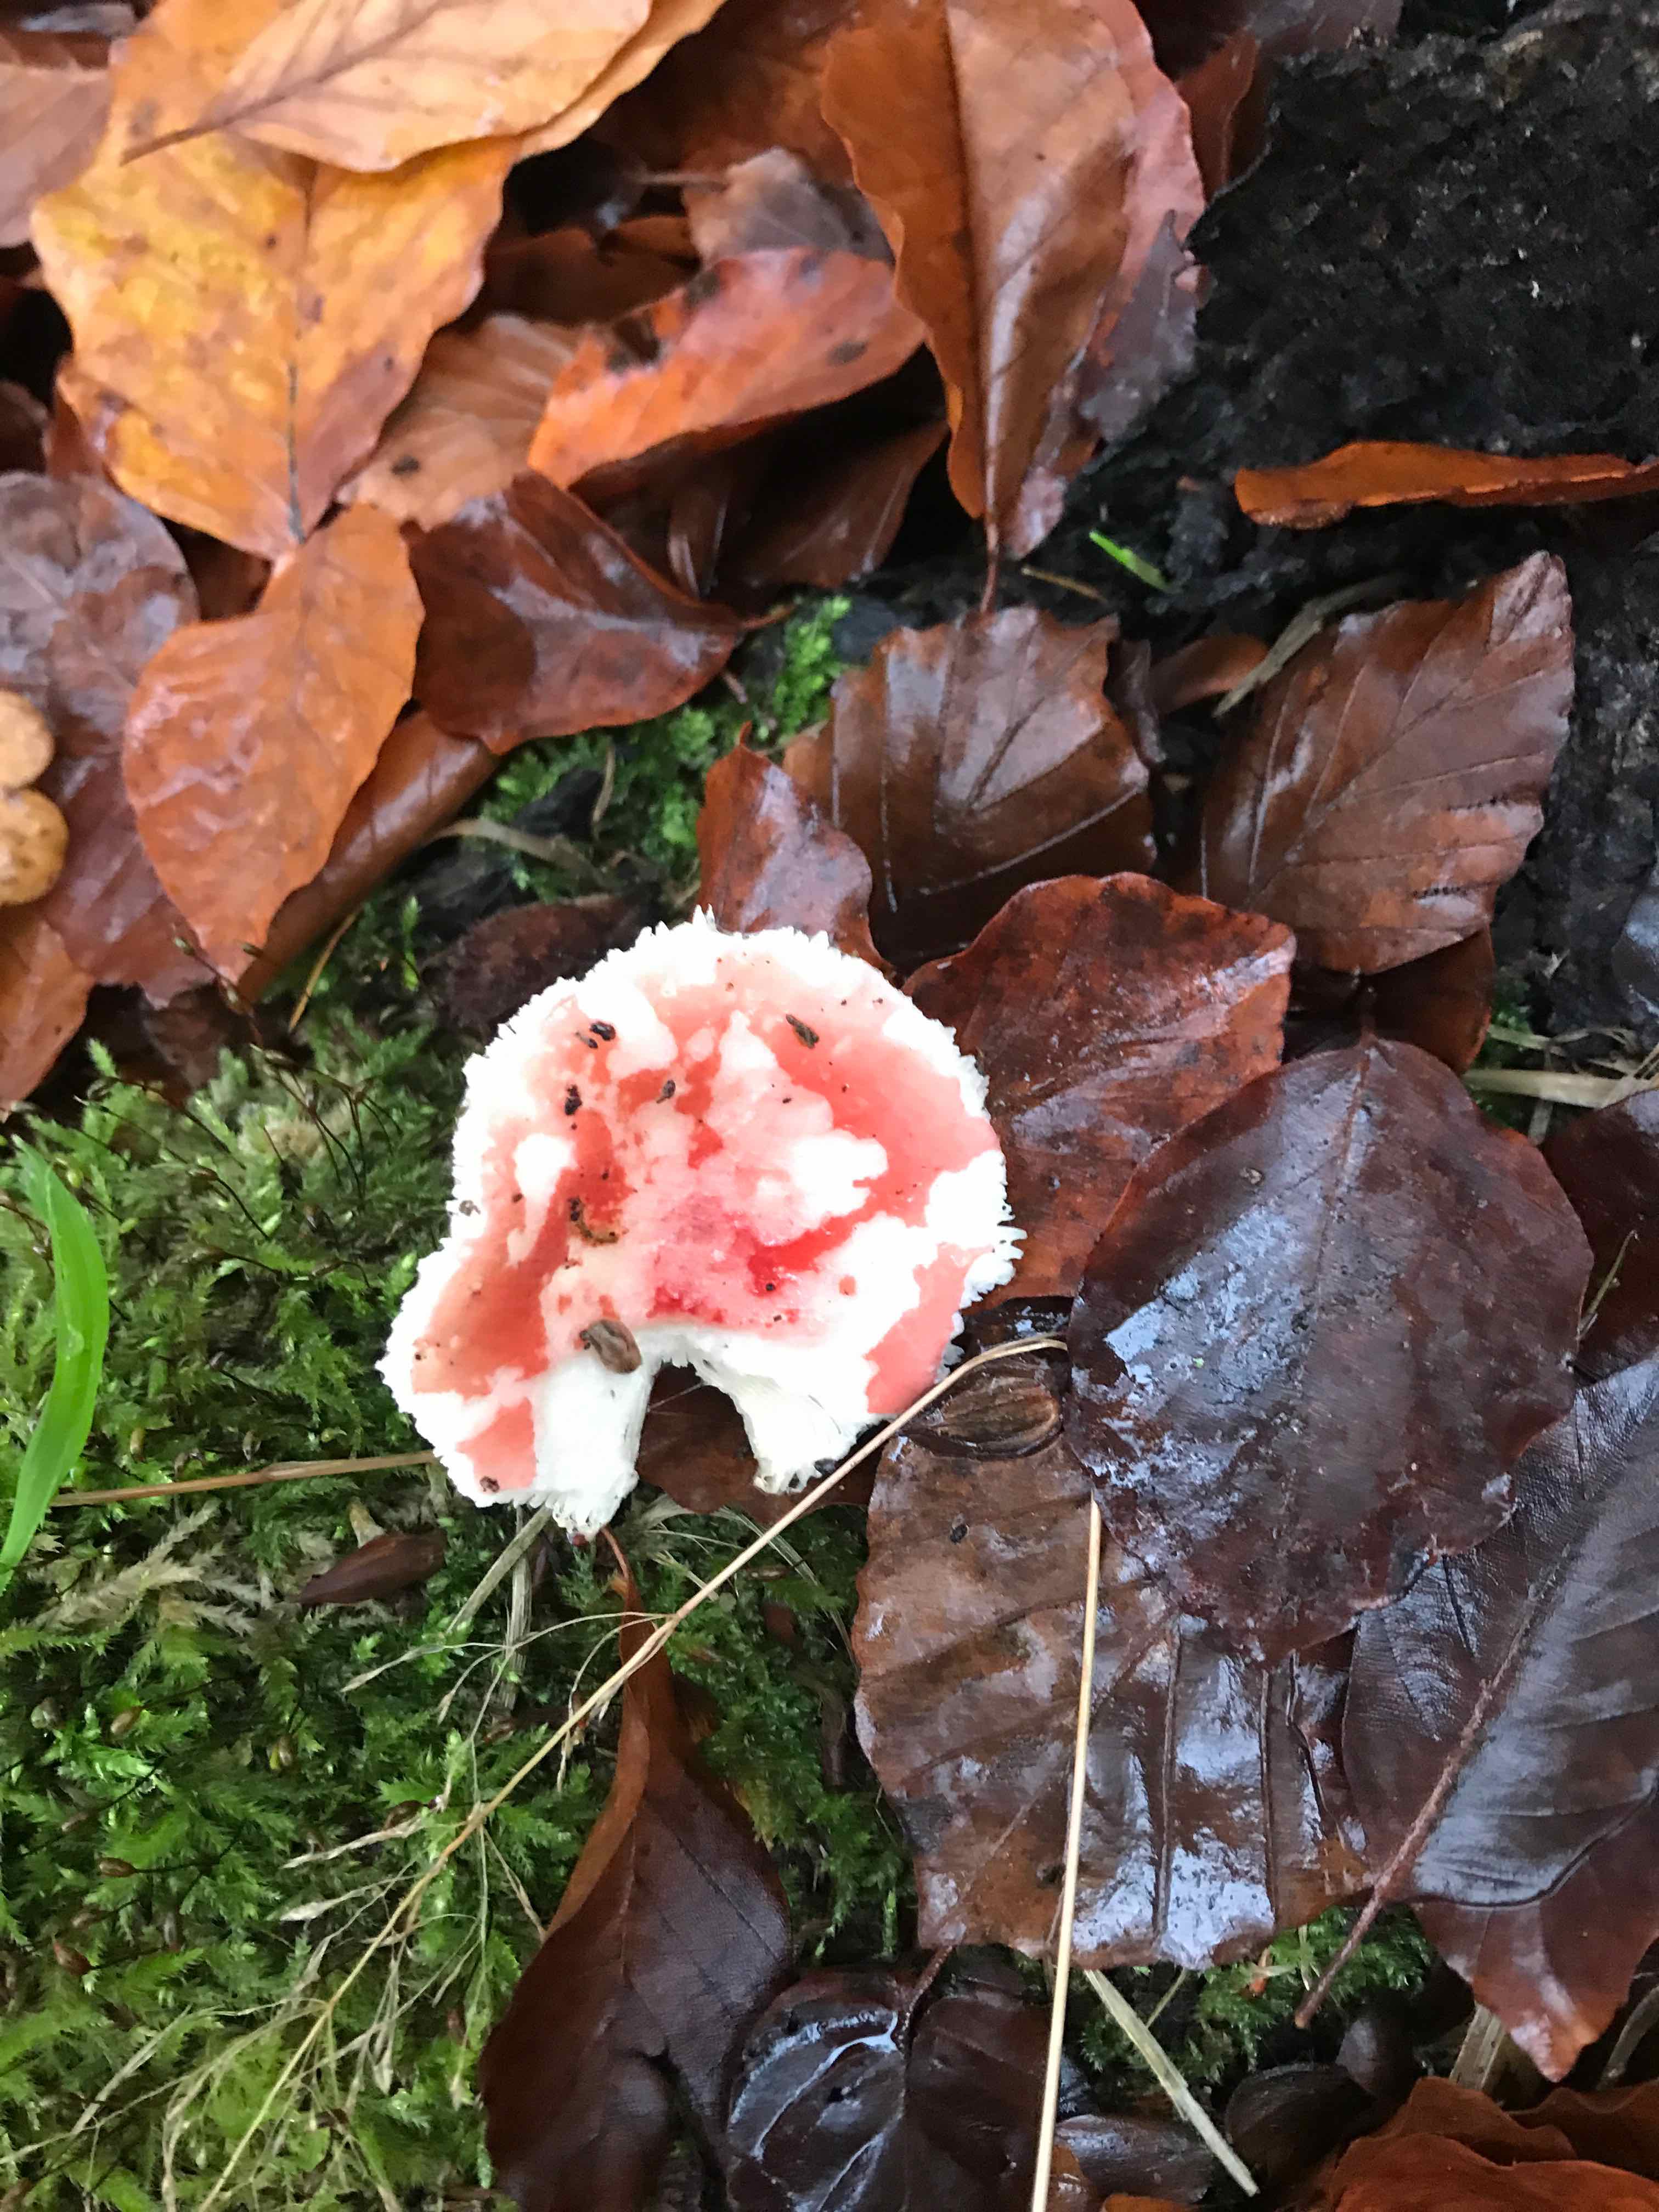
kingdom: Fungi
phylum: Basidiomycota
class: Agaricomycetes
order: Russulales
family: Russulaceae
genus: Russula
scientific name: Russula
